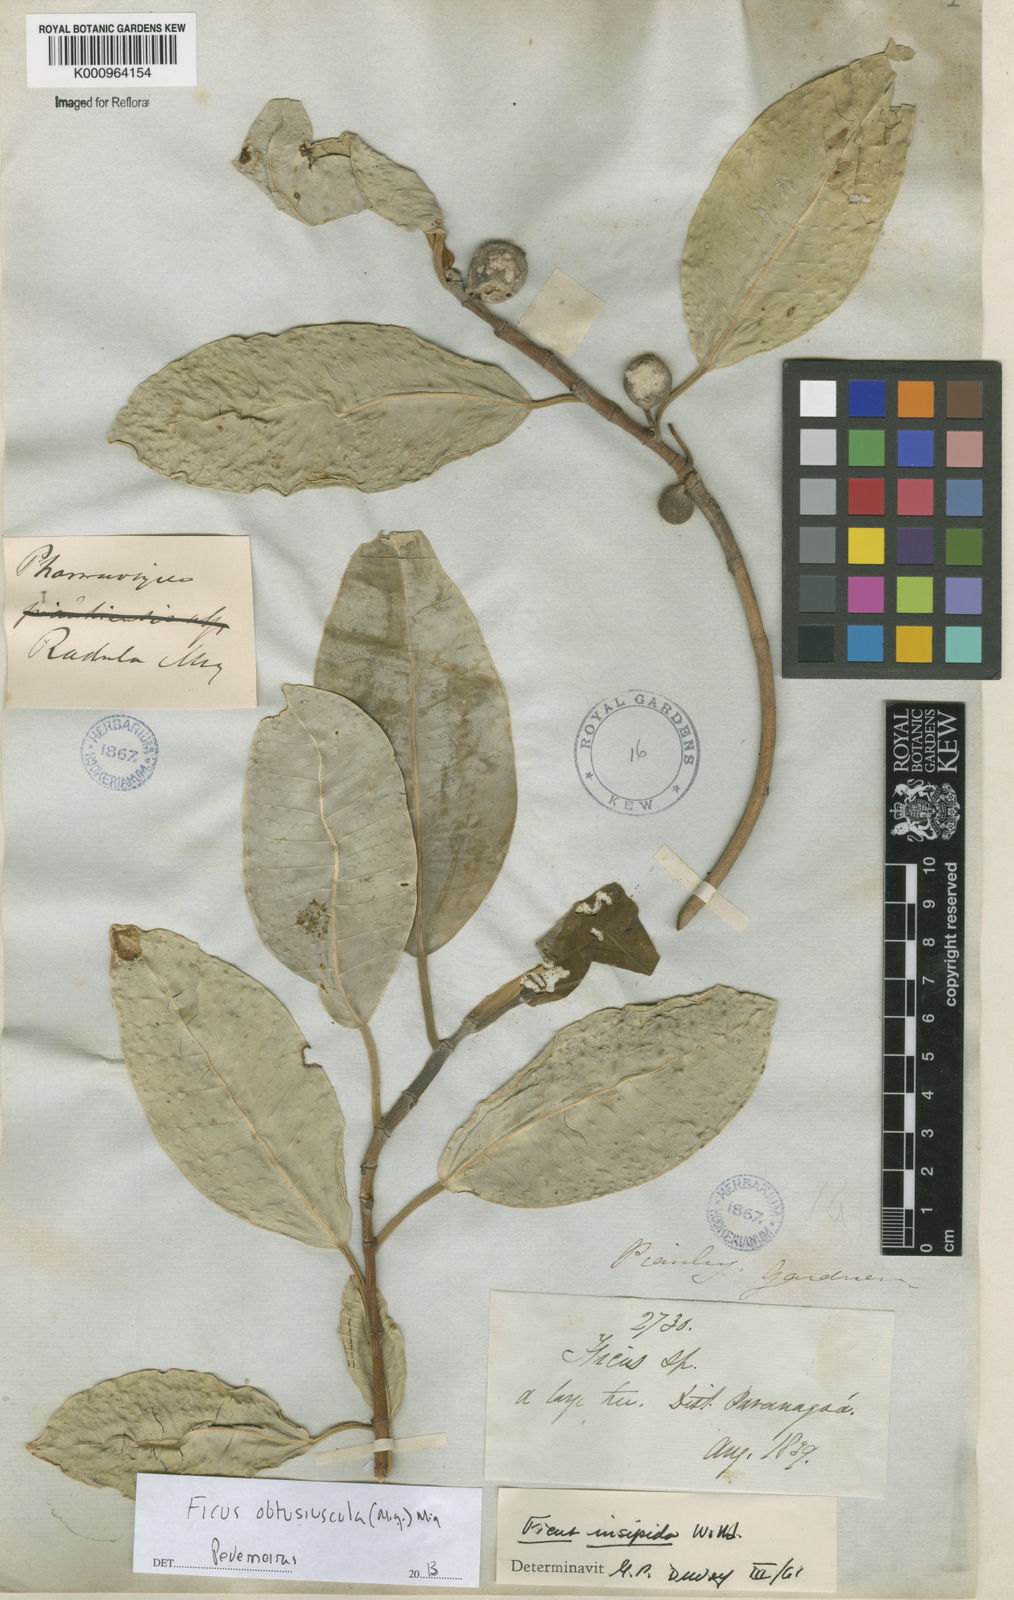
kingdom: Plantae
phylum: Tracheophyta
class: Magnoliopsida
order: Rosales
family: Moraceae
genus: Ficus
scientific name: Ficus obtusiuscula
